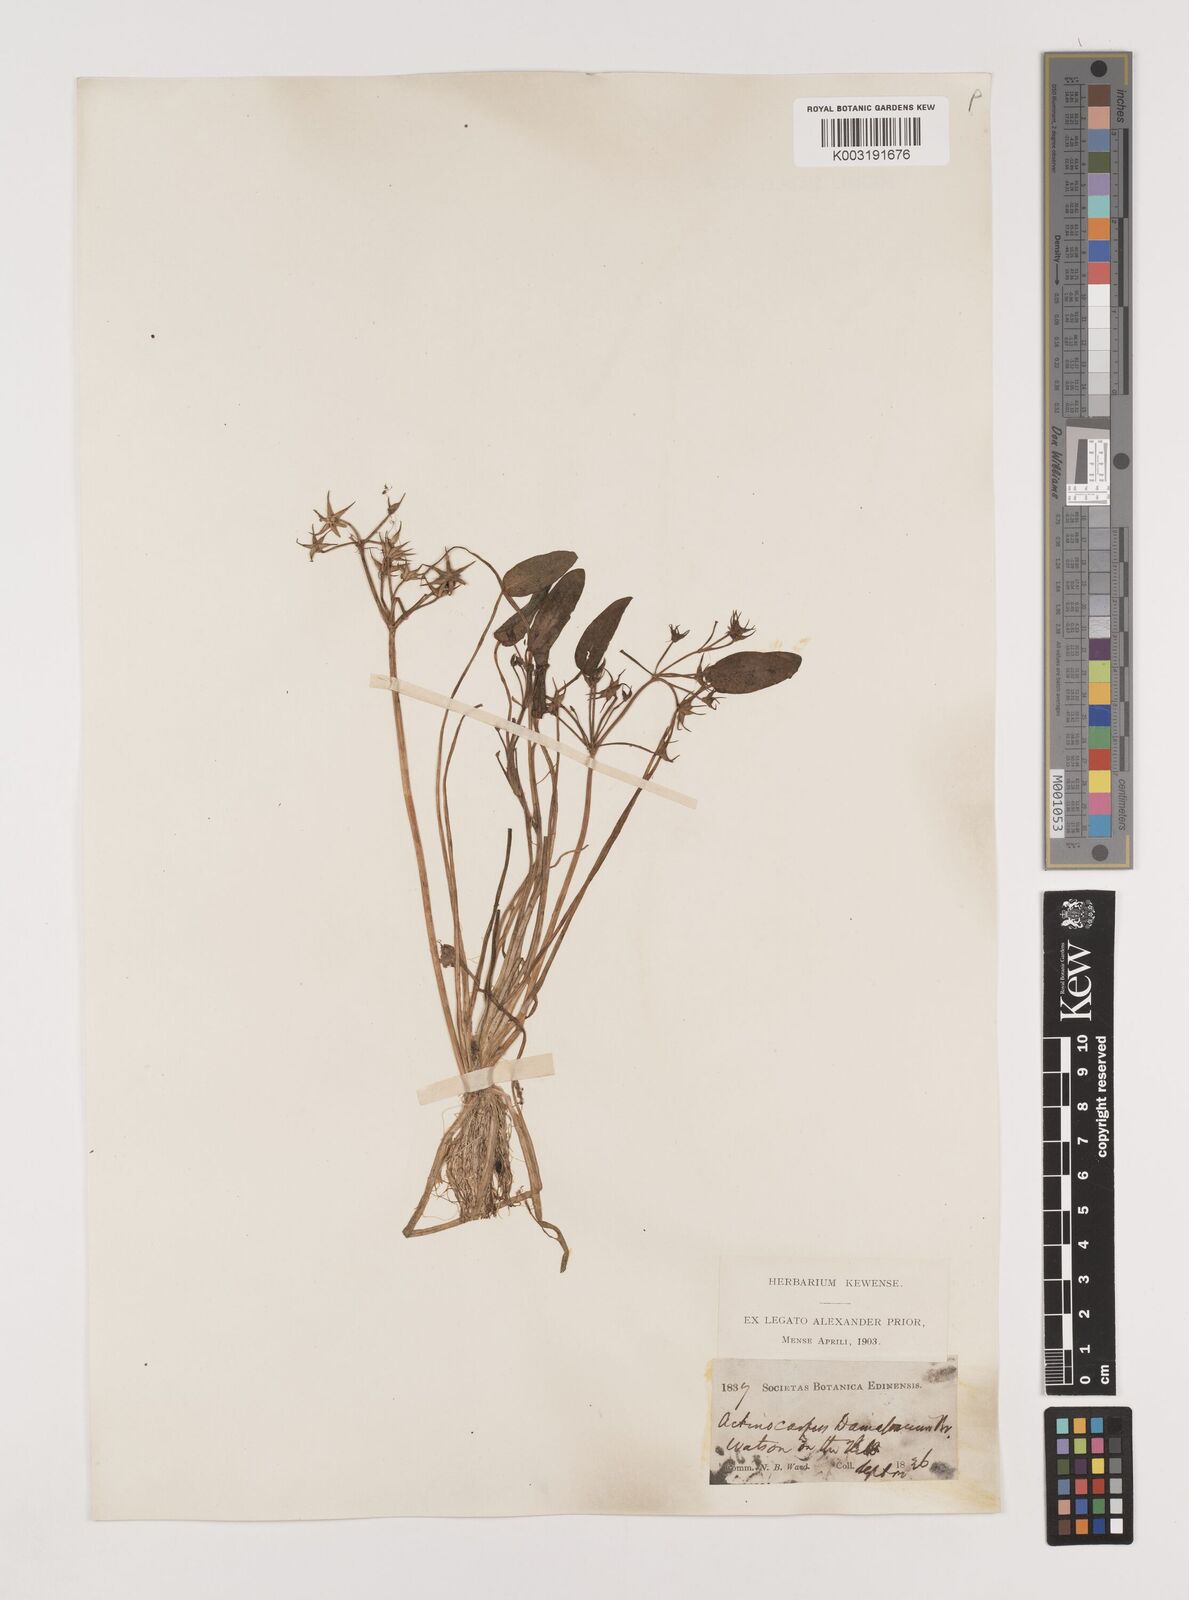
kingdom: Plantae
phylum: Tracheophyta
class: Liliopsida
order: Alismatales
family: Alismataceae
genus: Damasonium
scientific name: Damasonium alisma
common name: Starfruit
